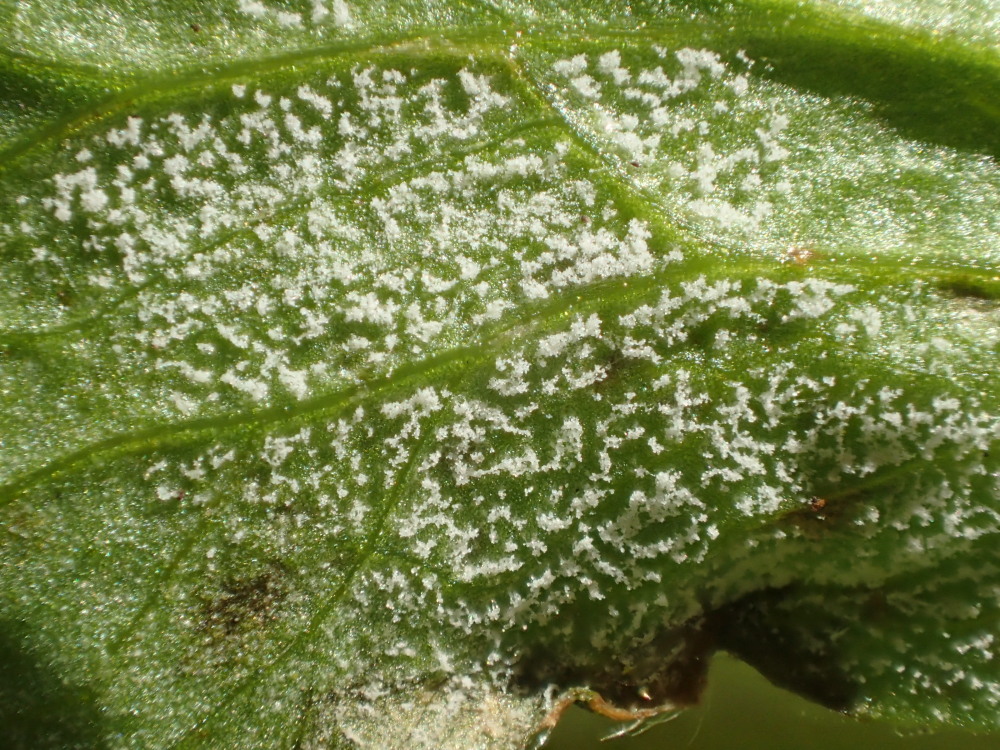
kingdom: Chromista
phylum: Oomycota
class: Peronosporea
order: Peronosporales
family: Peronosporaceae
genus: Plasmoverna
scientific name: Plasmoverna pygmaea
